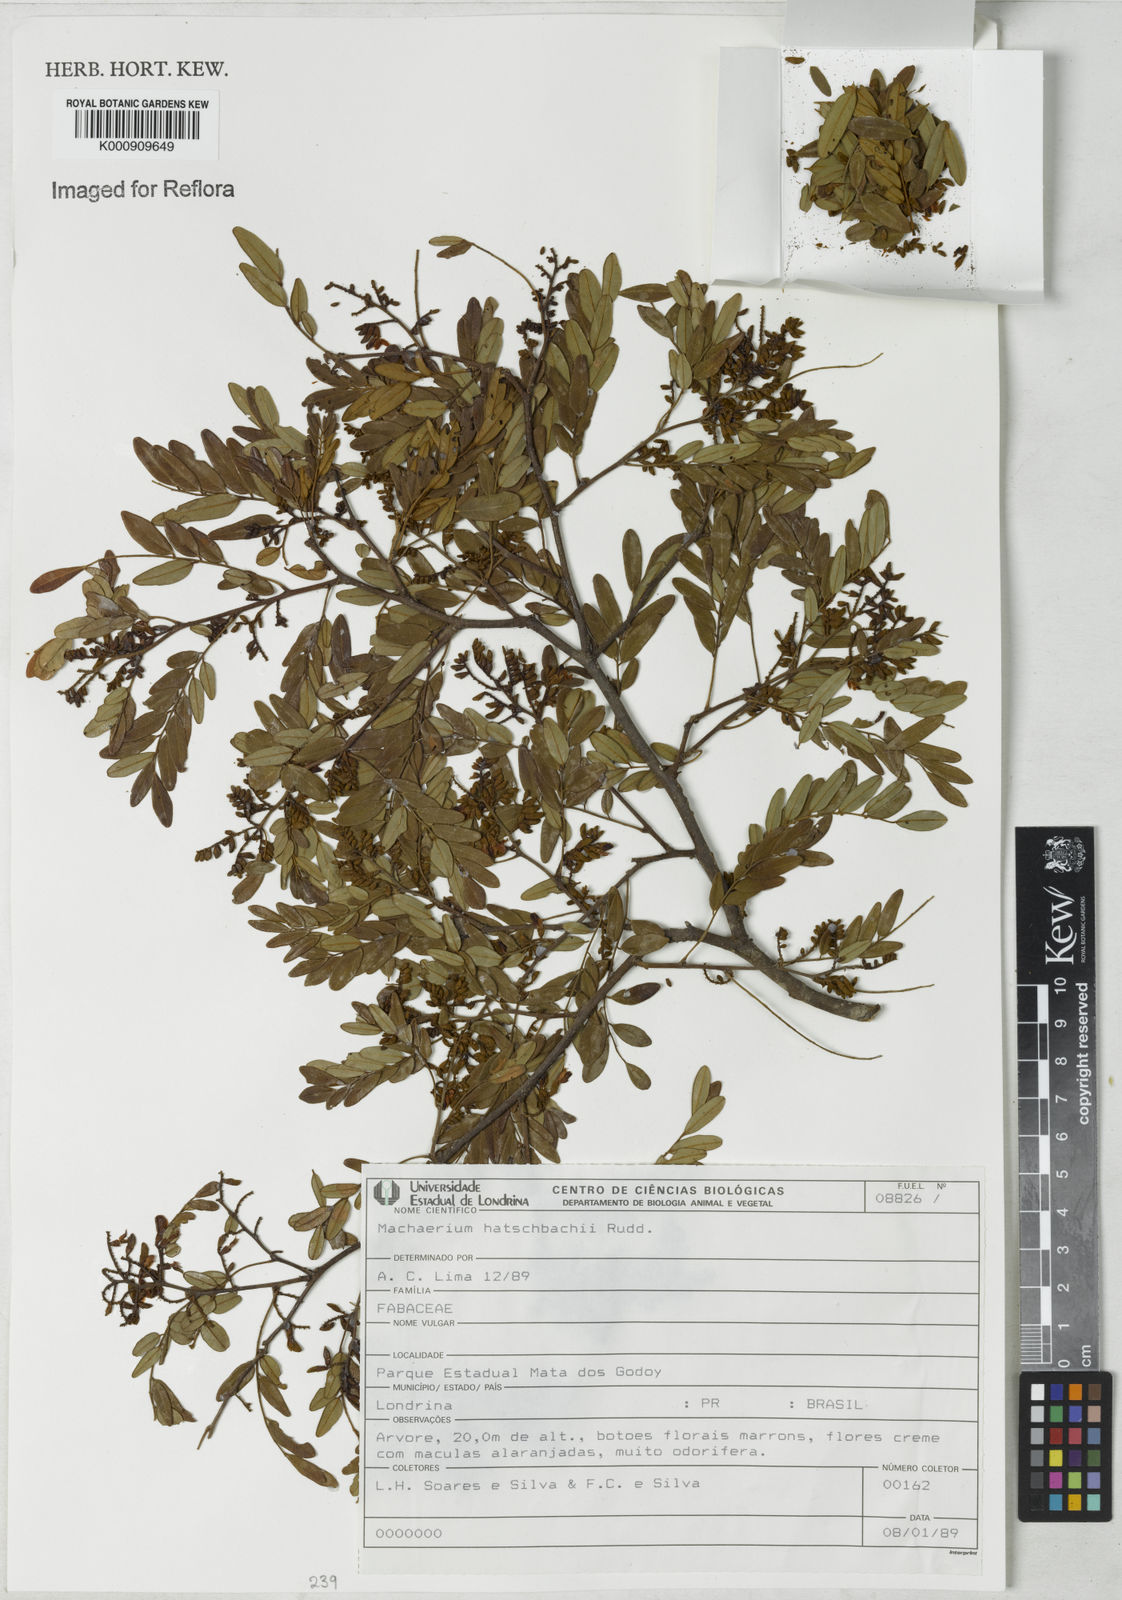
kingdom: Plantae
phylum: Tracheophyta
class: Magnoliopsida
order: Fabales
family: Fabaceae
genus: Machaerium
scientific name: Machaerium hatschbachii
